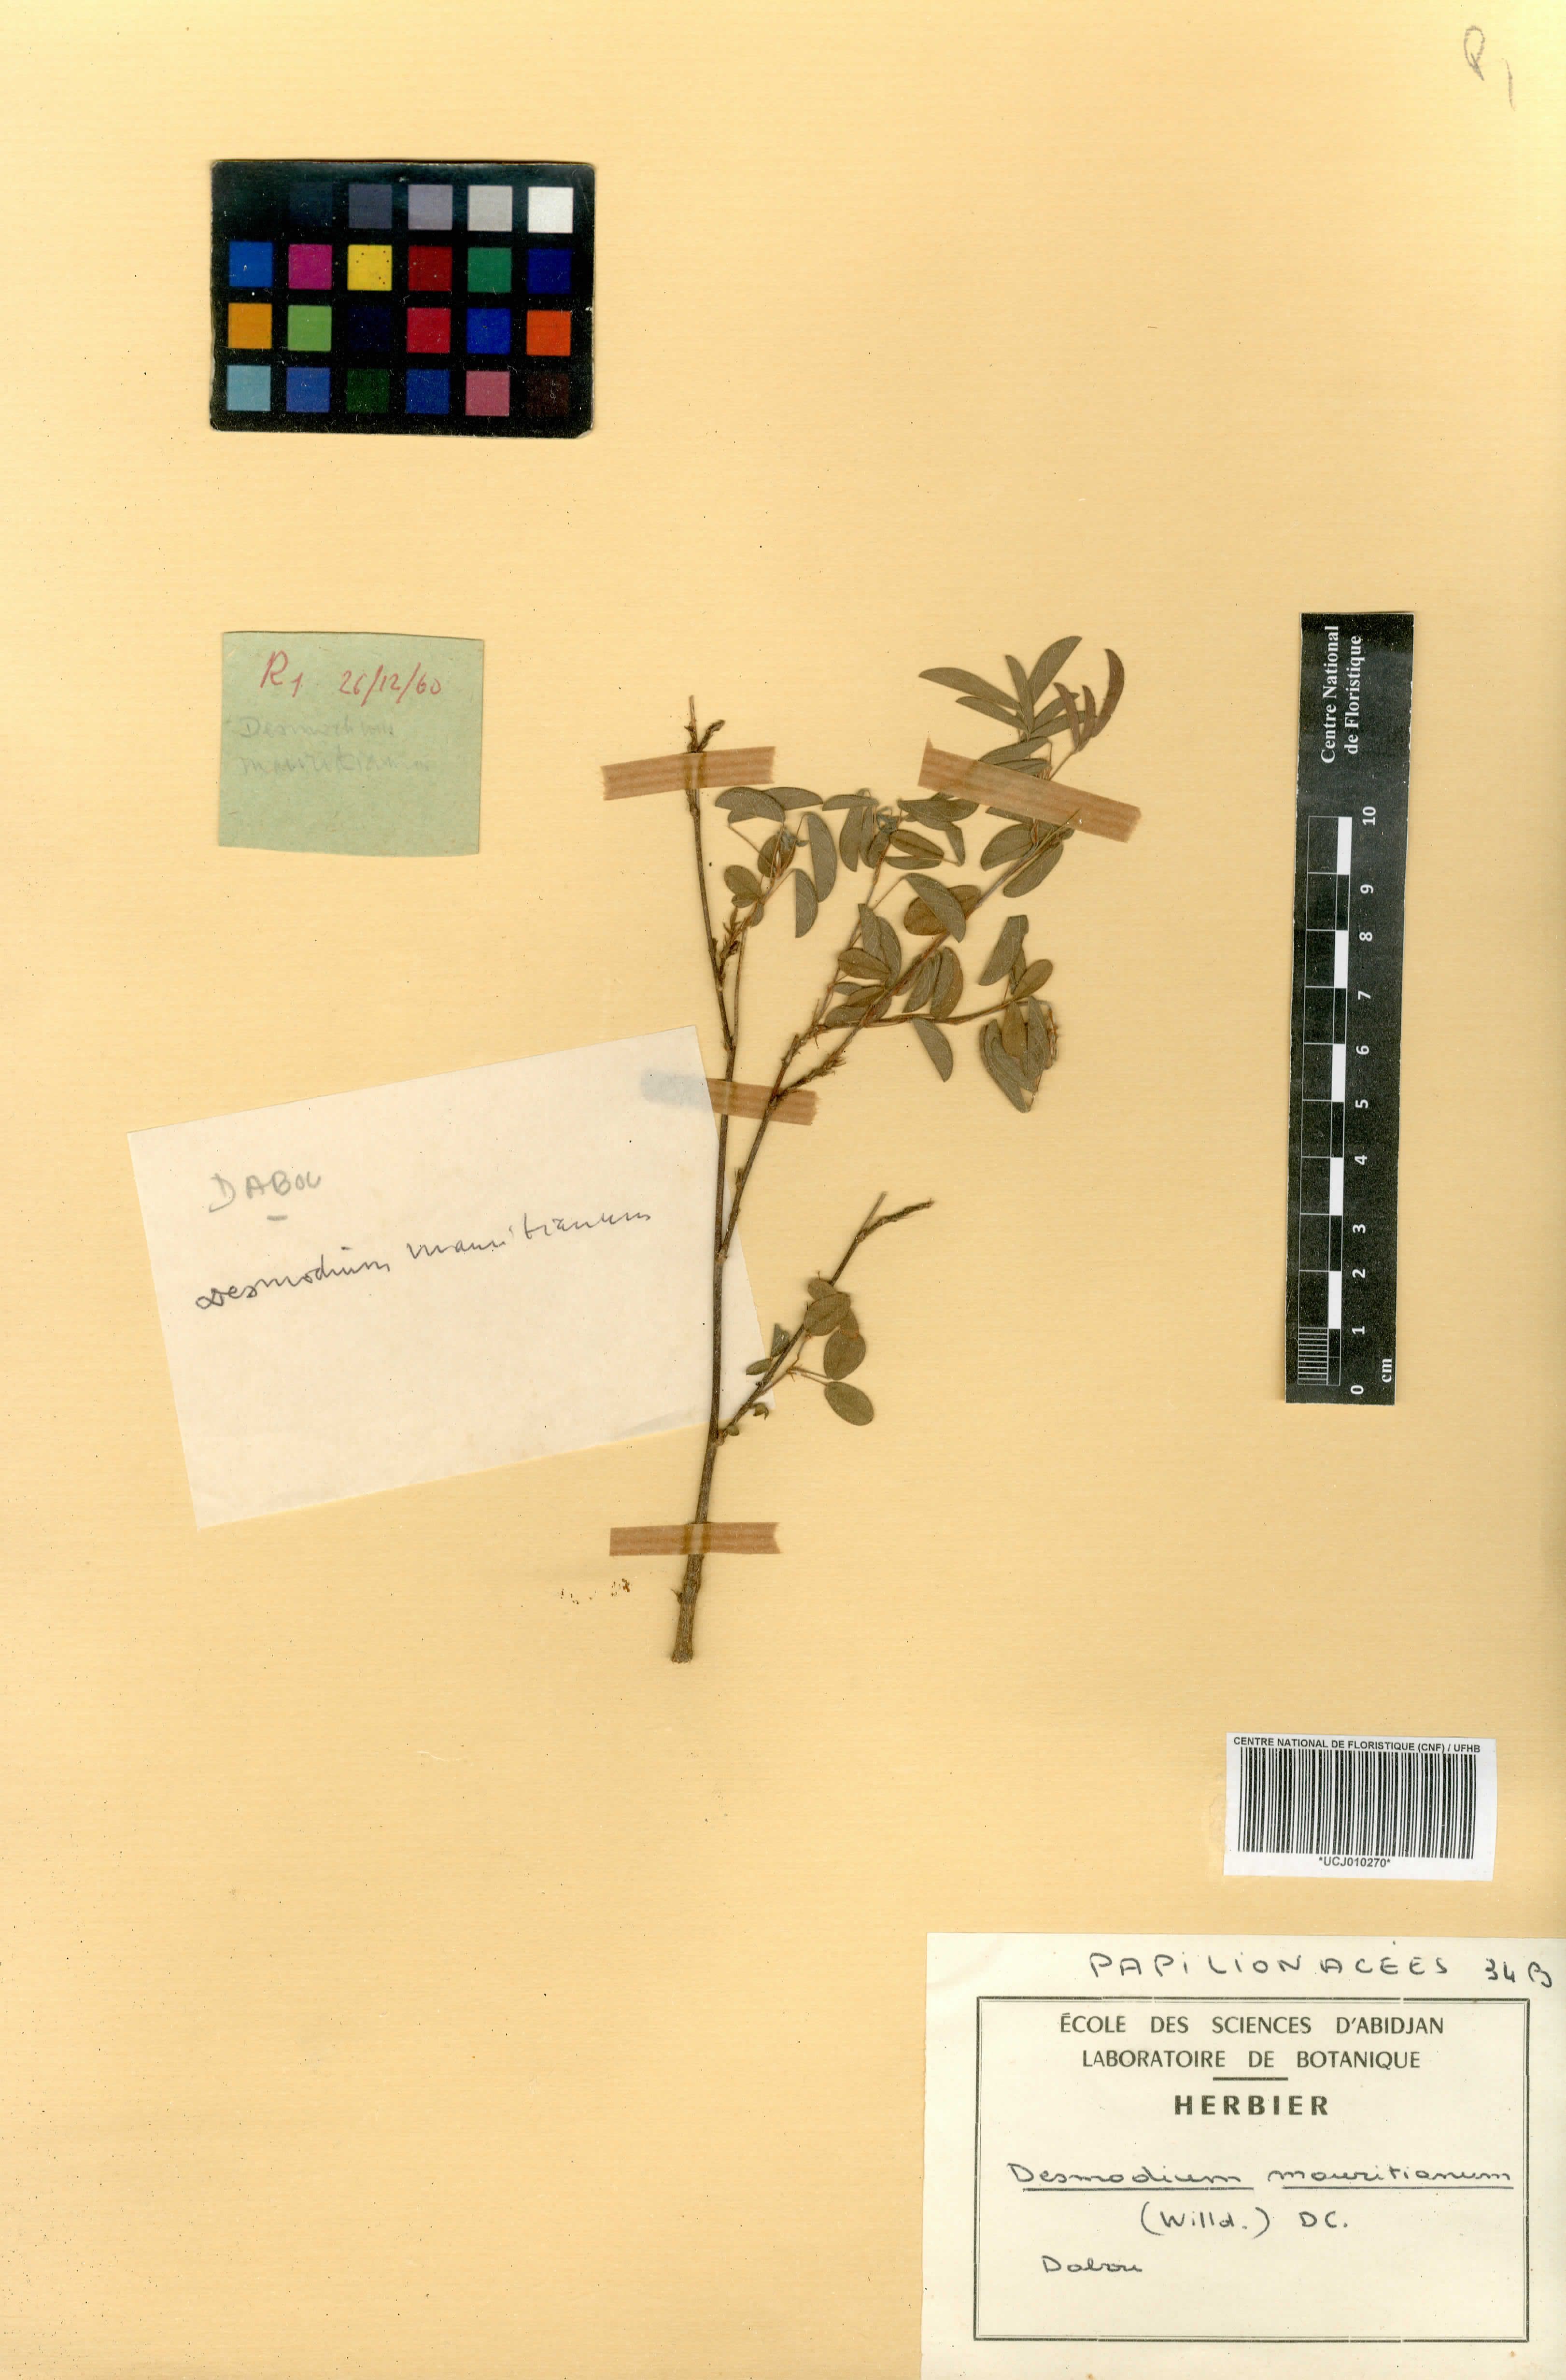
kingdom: Plantae
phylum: Tracheophyta
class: Magnoliopsida
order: Fabales
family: Fabaceae
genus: Desmodium
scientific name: Desmodium incanum
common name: Tickclover
